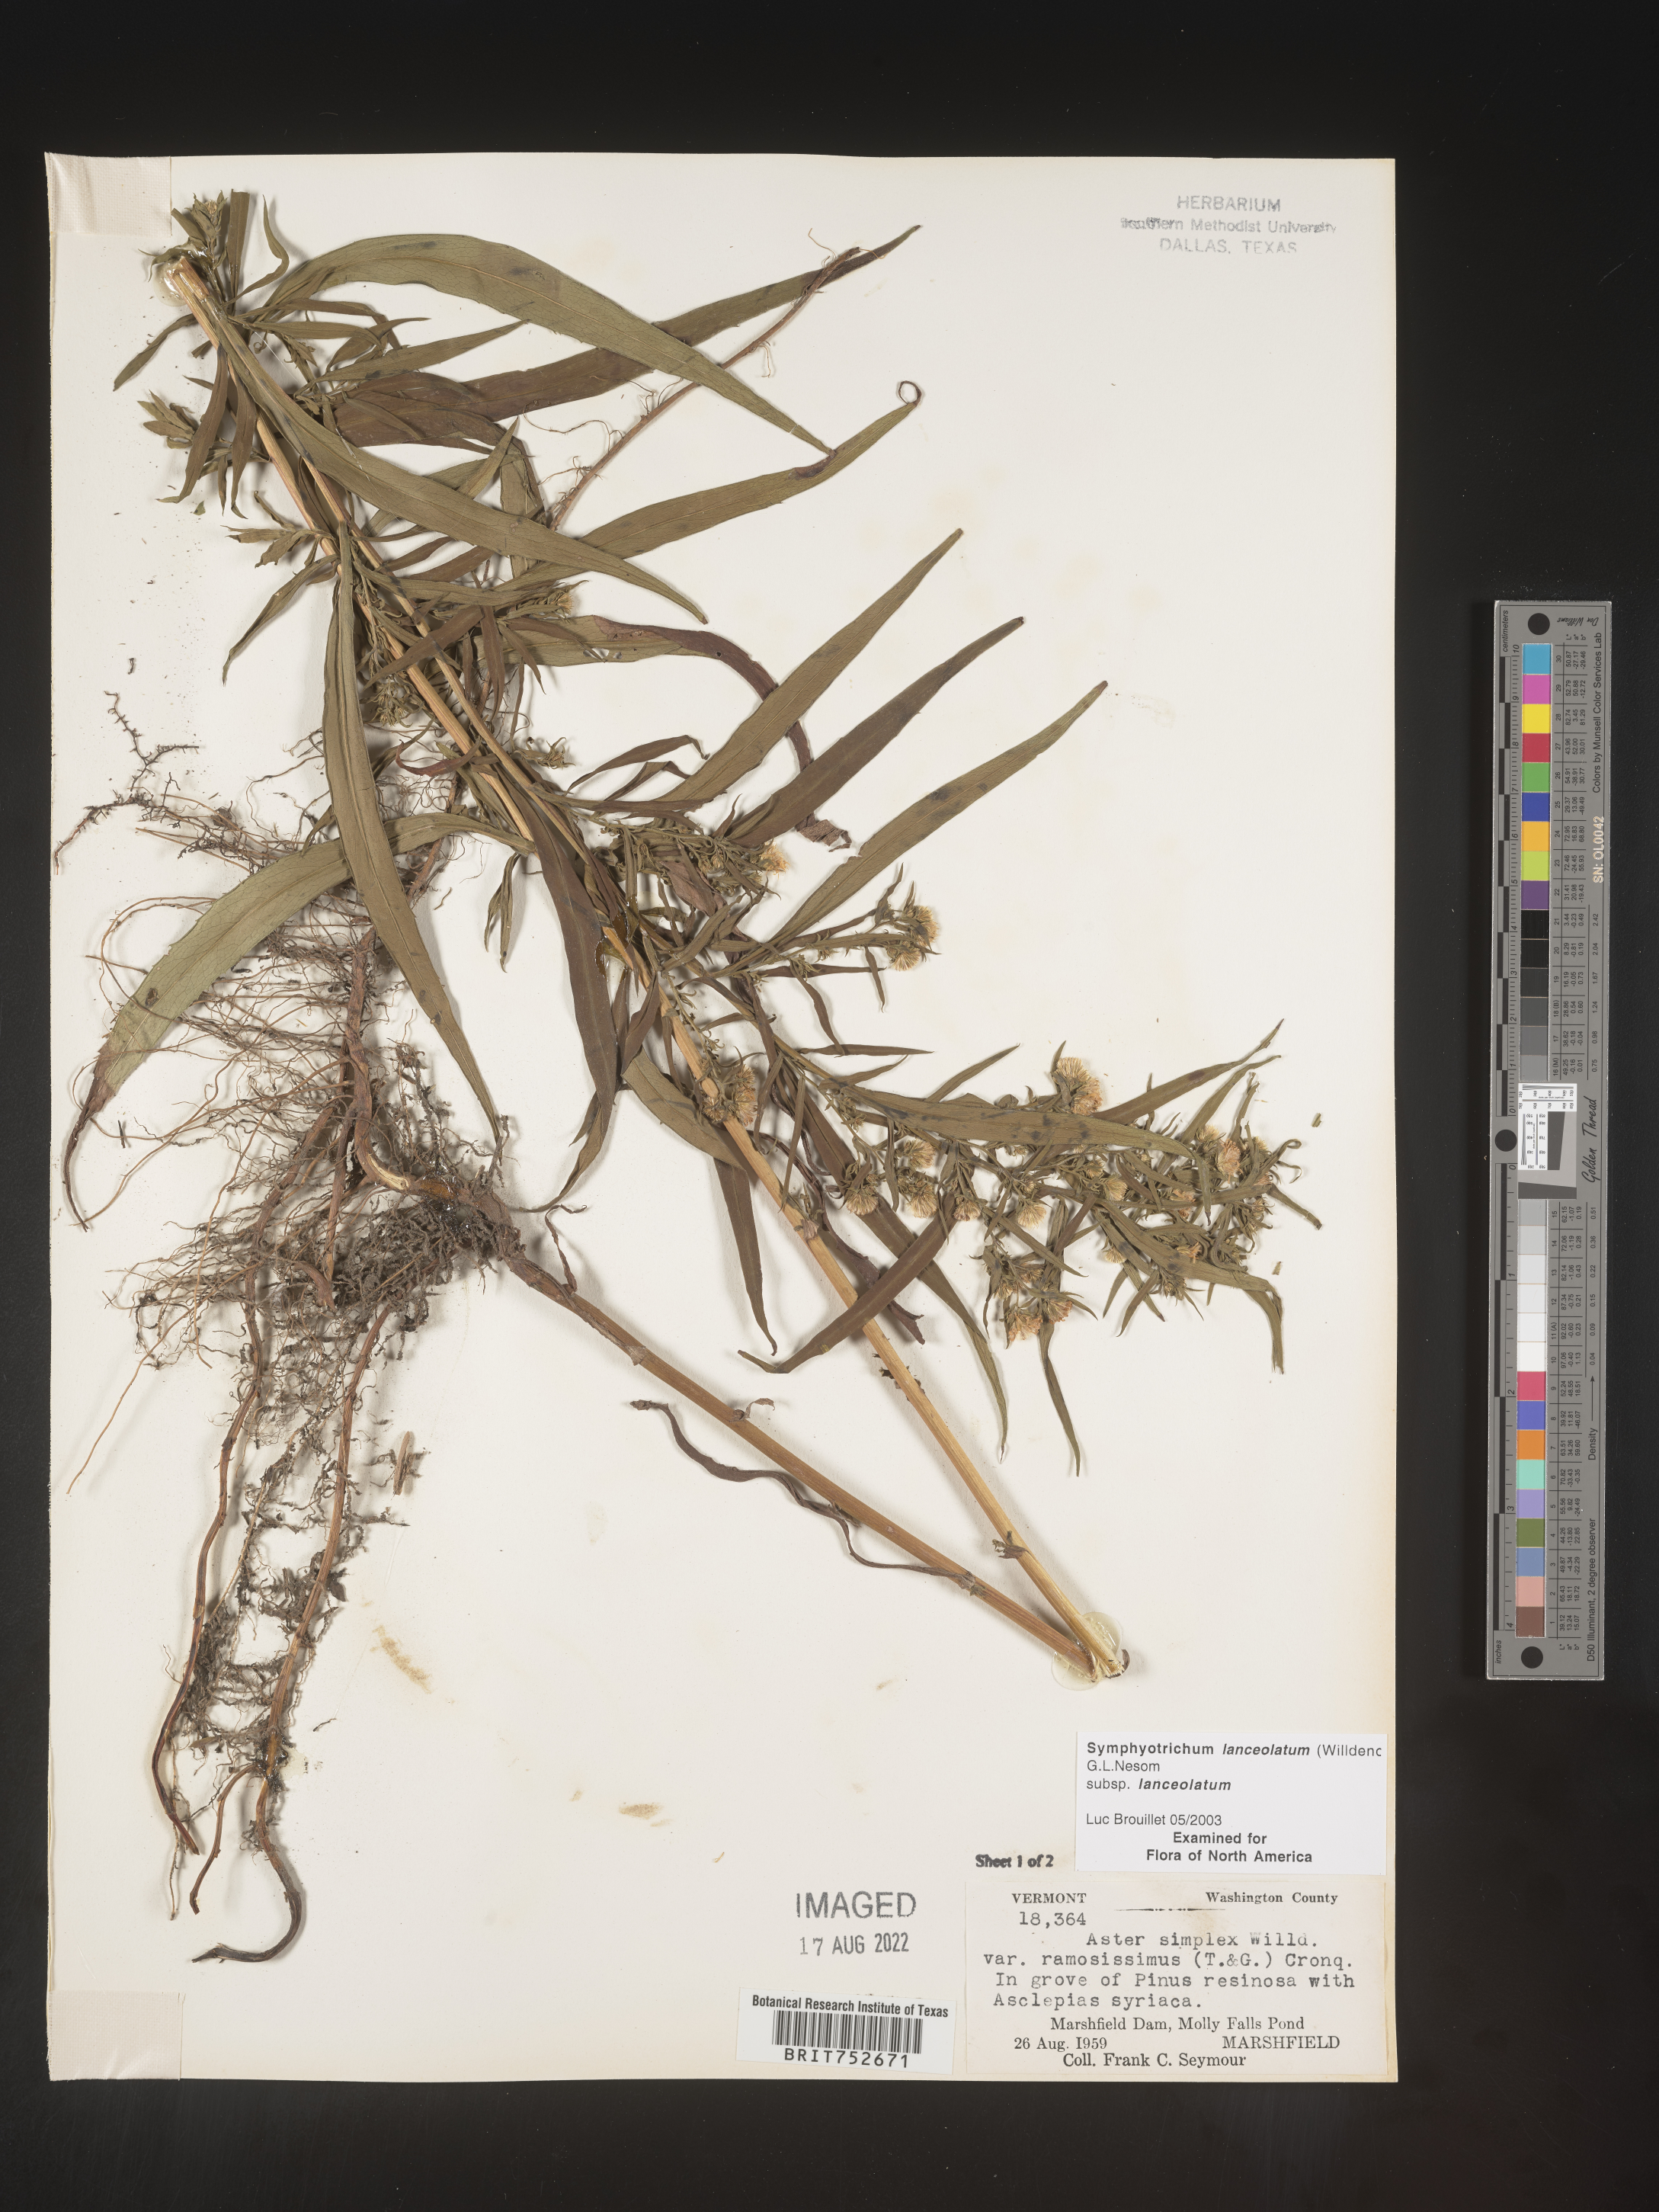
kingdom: Plantae
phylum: Tracheophyta
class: Magnoliopsida
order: Asterales
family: Asteraceae
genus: Symphyotrichum
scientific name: Symphyotrichum lanceolatum
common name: Panicled aster
